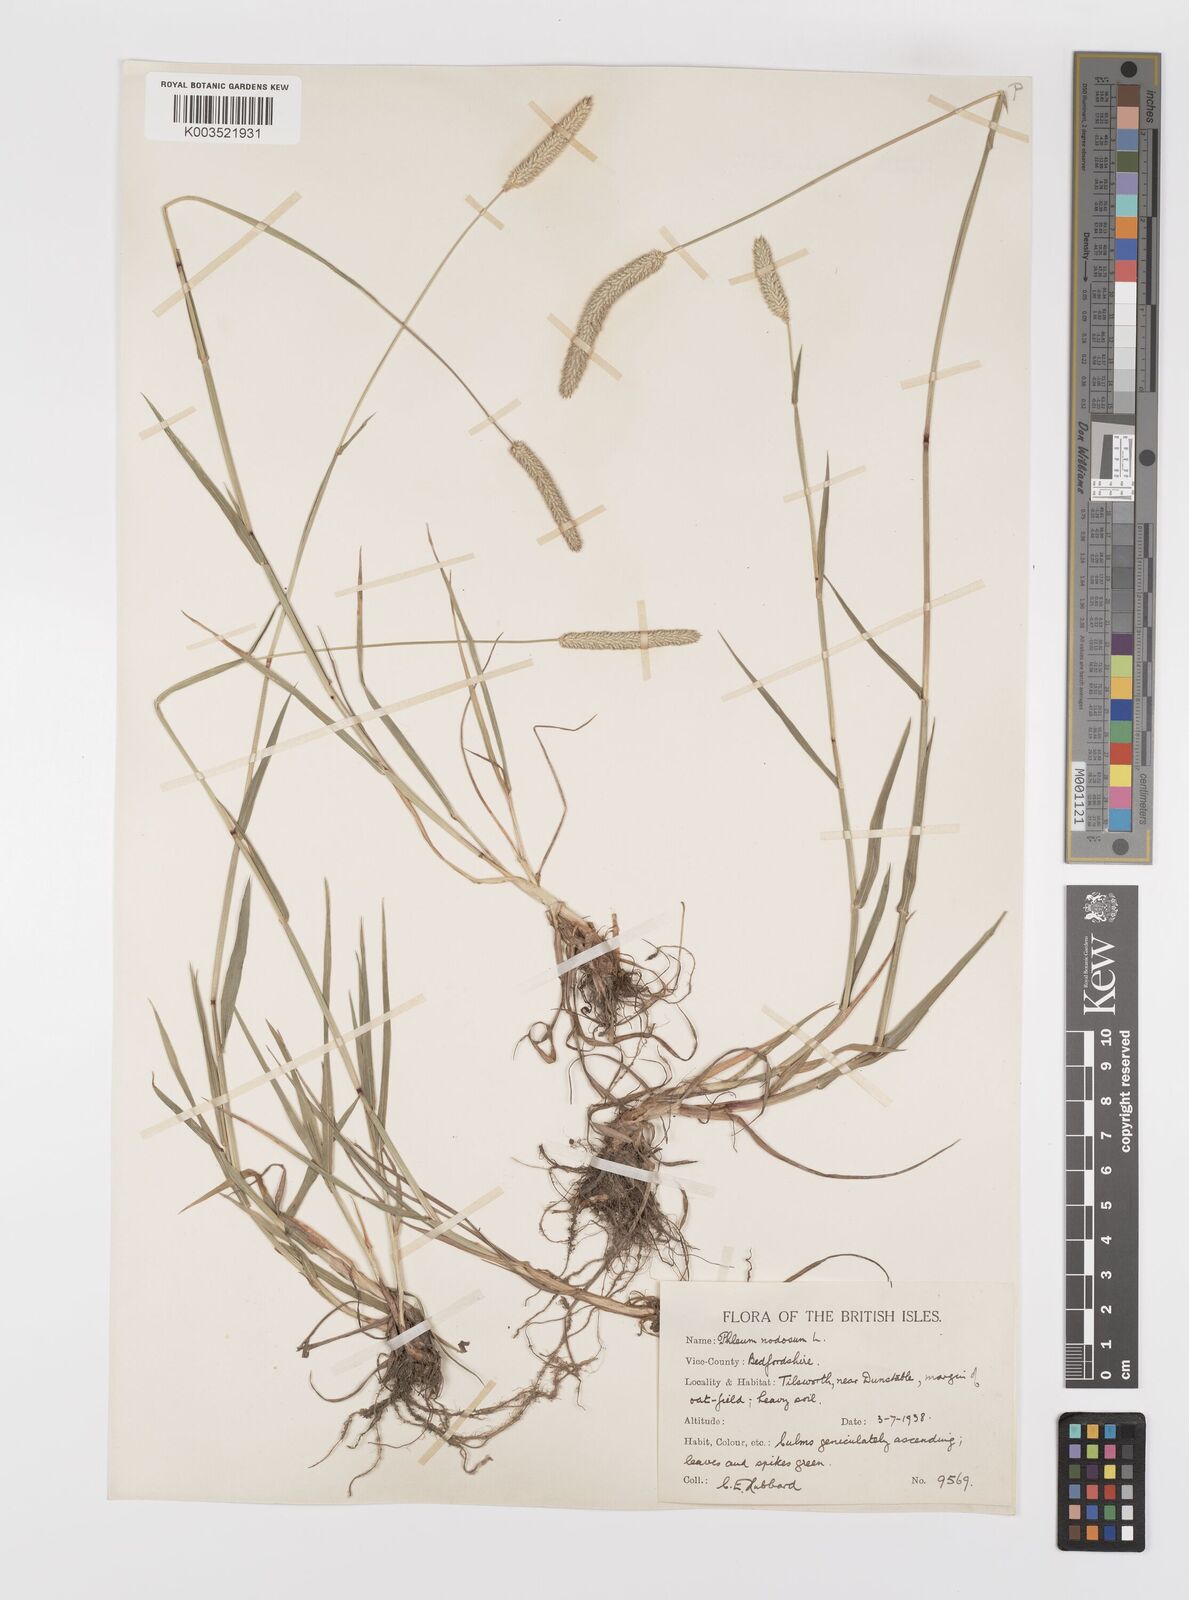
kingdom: Plantae
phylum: Tracheophyta
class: Liliopsida
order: Poales
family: Poaceae
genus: Phleum
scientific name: Phleum bertolonii
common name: Smaller cat's-tail
